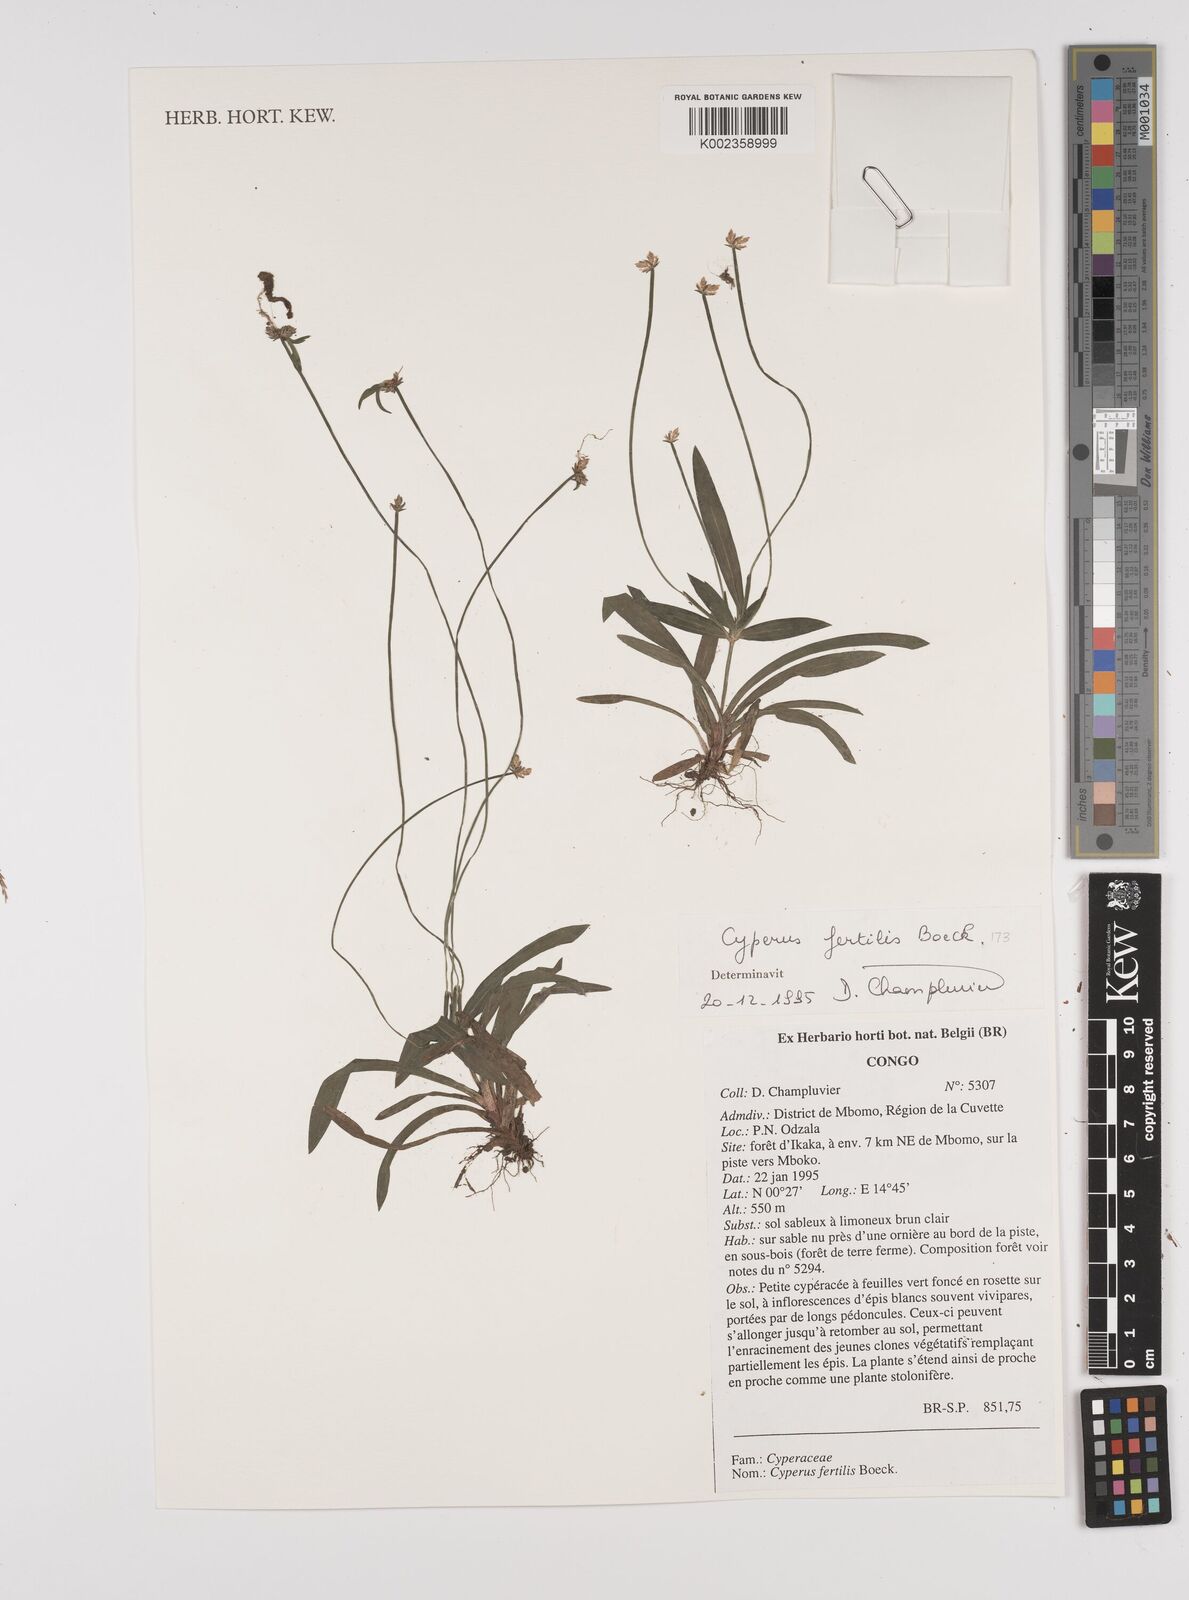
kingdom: Plantae
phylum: Tracheophyta
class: Liliopsida
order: Poales
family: Cyperaceae
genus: Cyperus
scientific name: Cyperus fertilis
